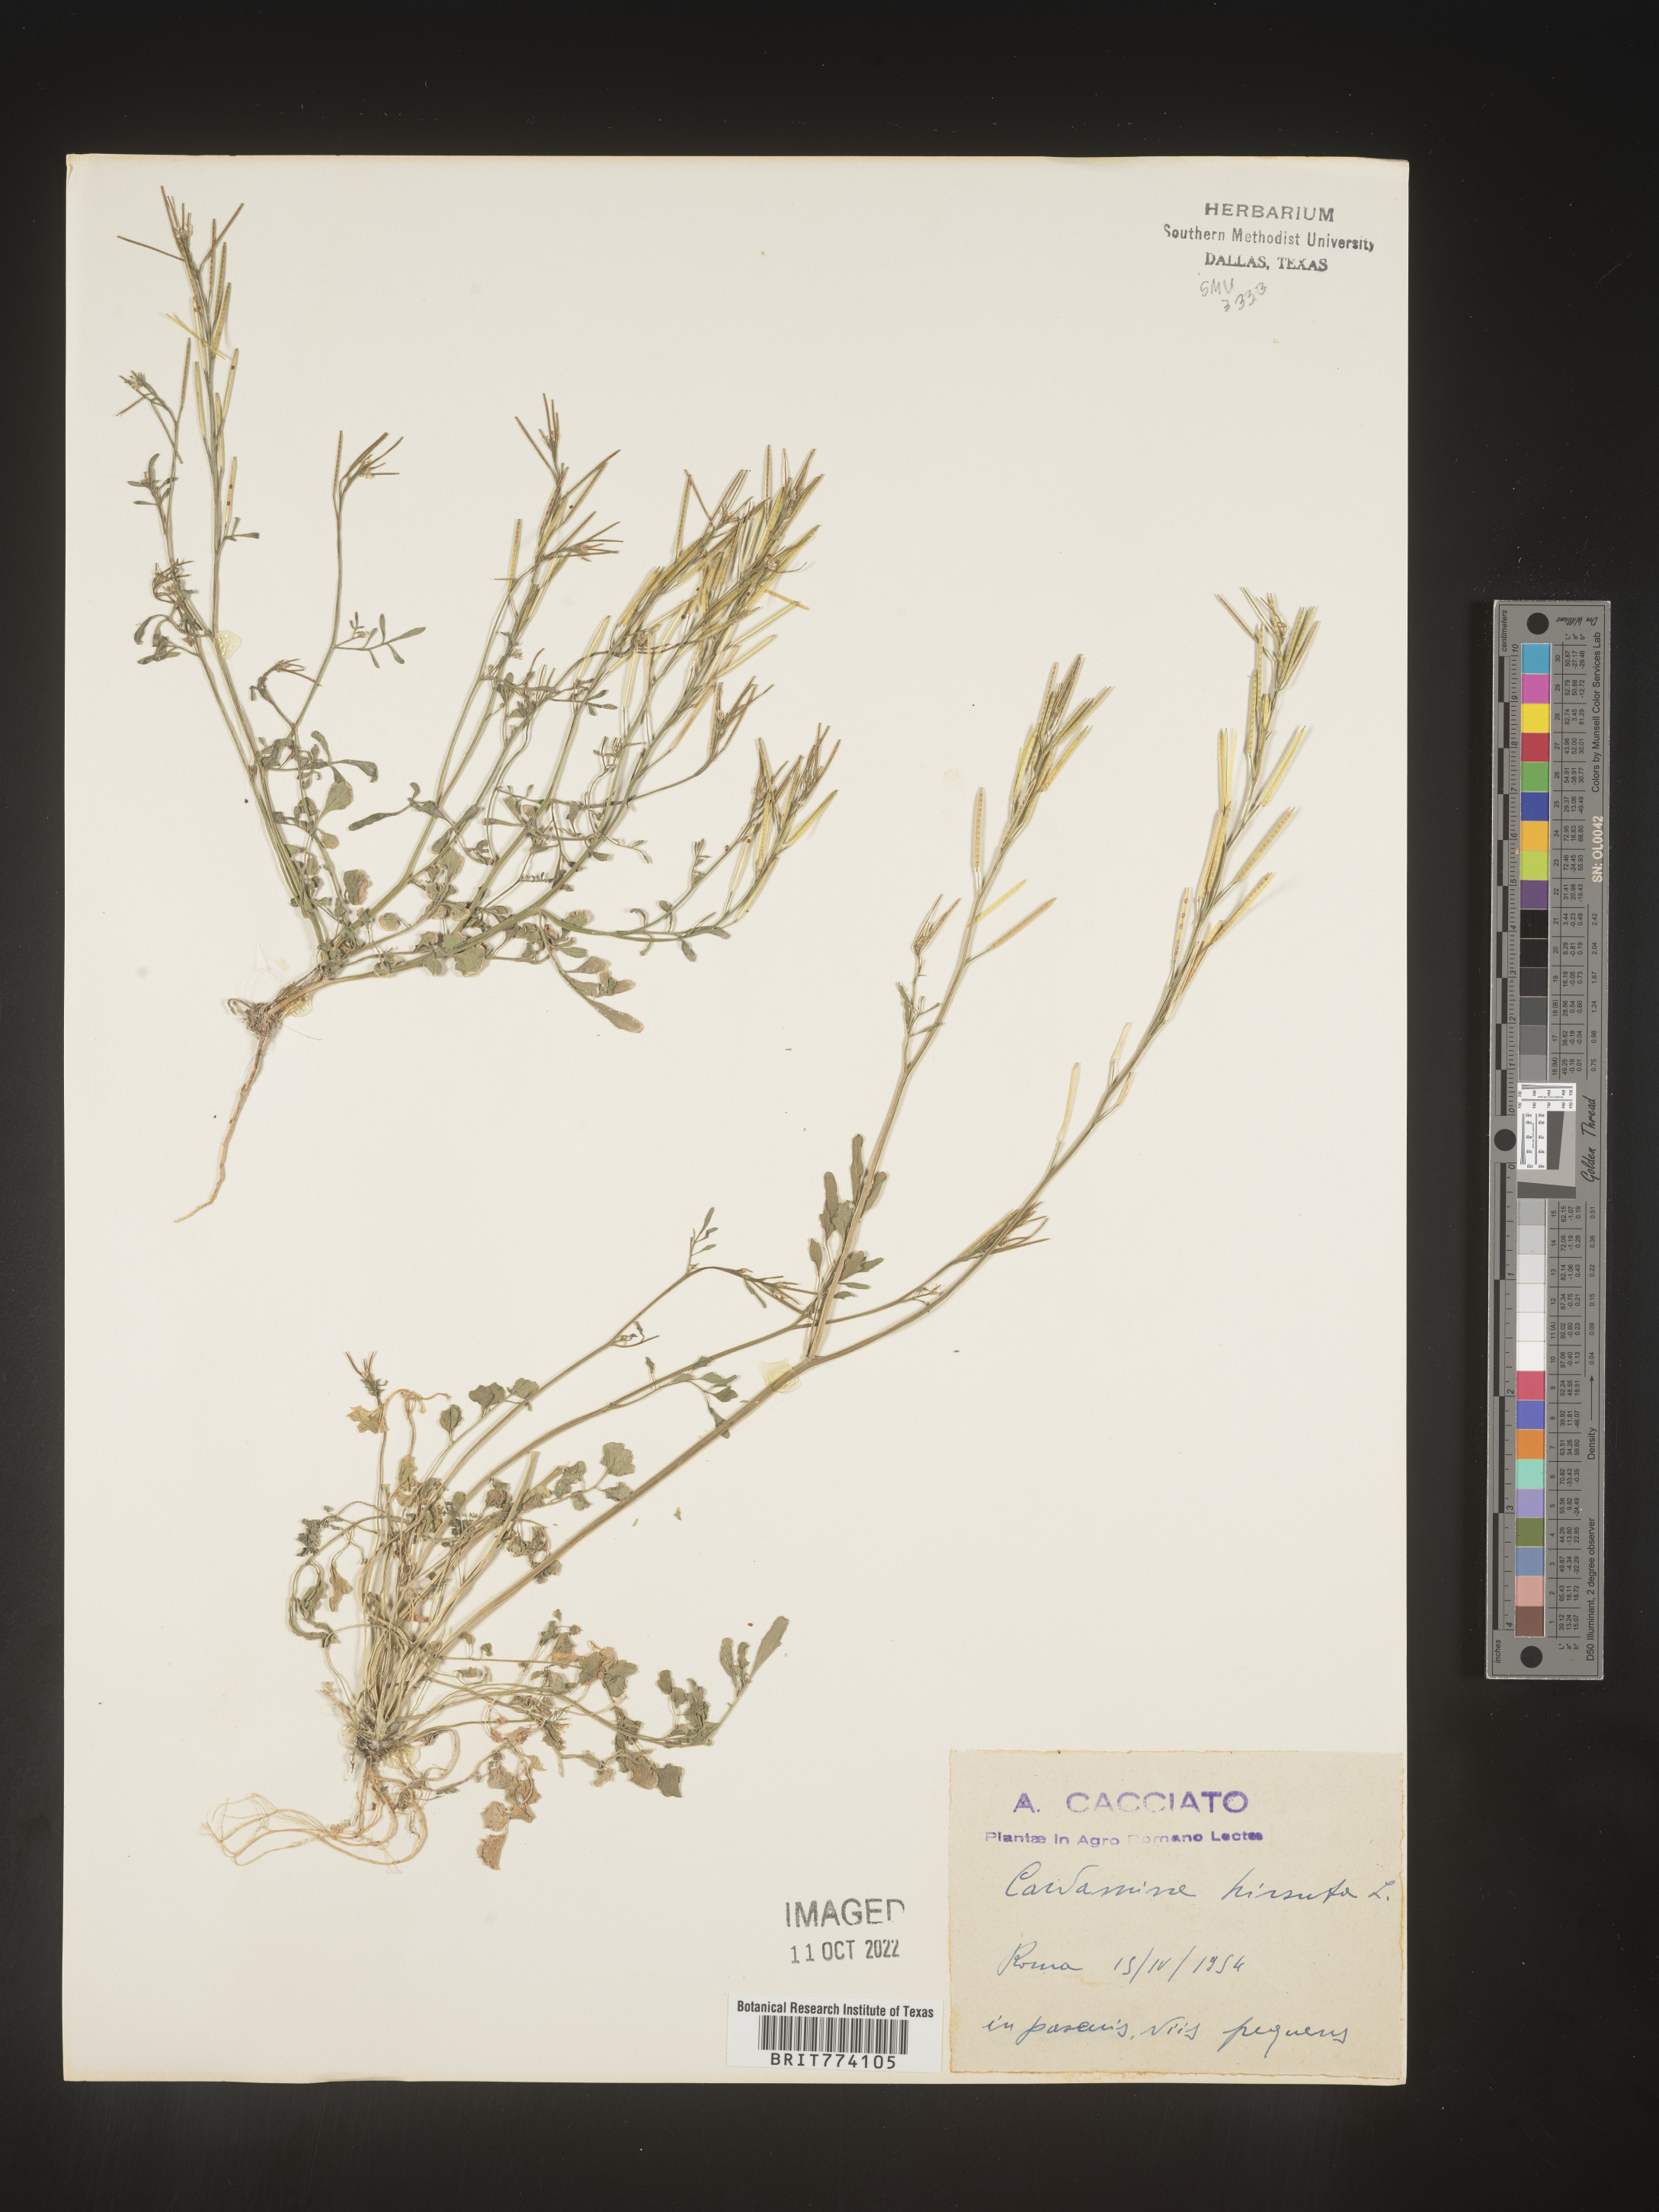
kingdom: Plantae
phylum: Tracheophyta
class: Magnoliopsida
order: Brassicales
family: Brassicaceae
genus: Cardamine
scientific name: Cardamine hirsuta
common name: Hairy bittercress
